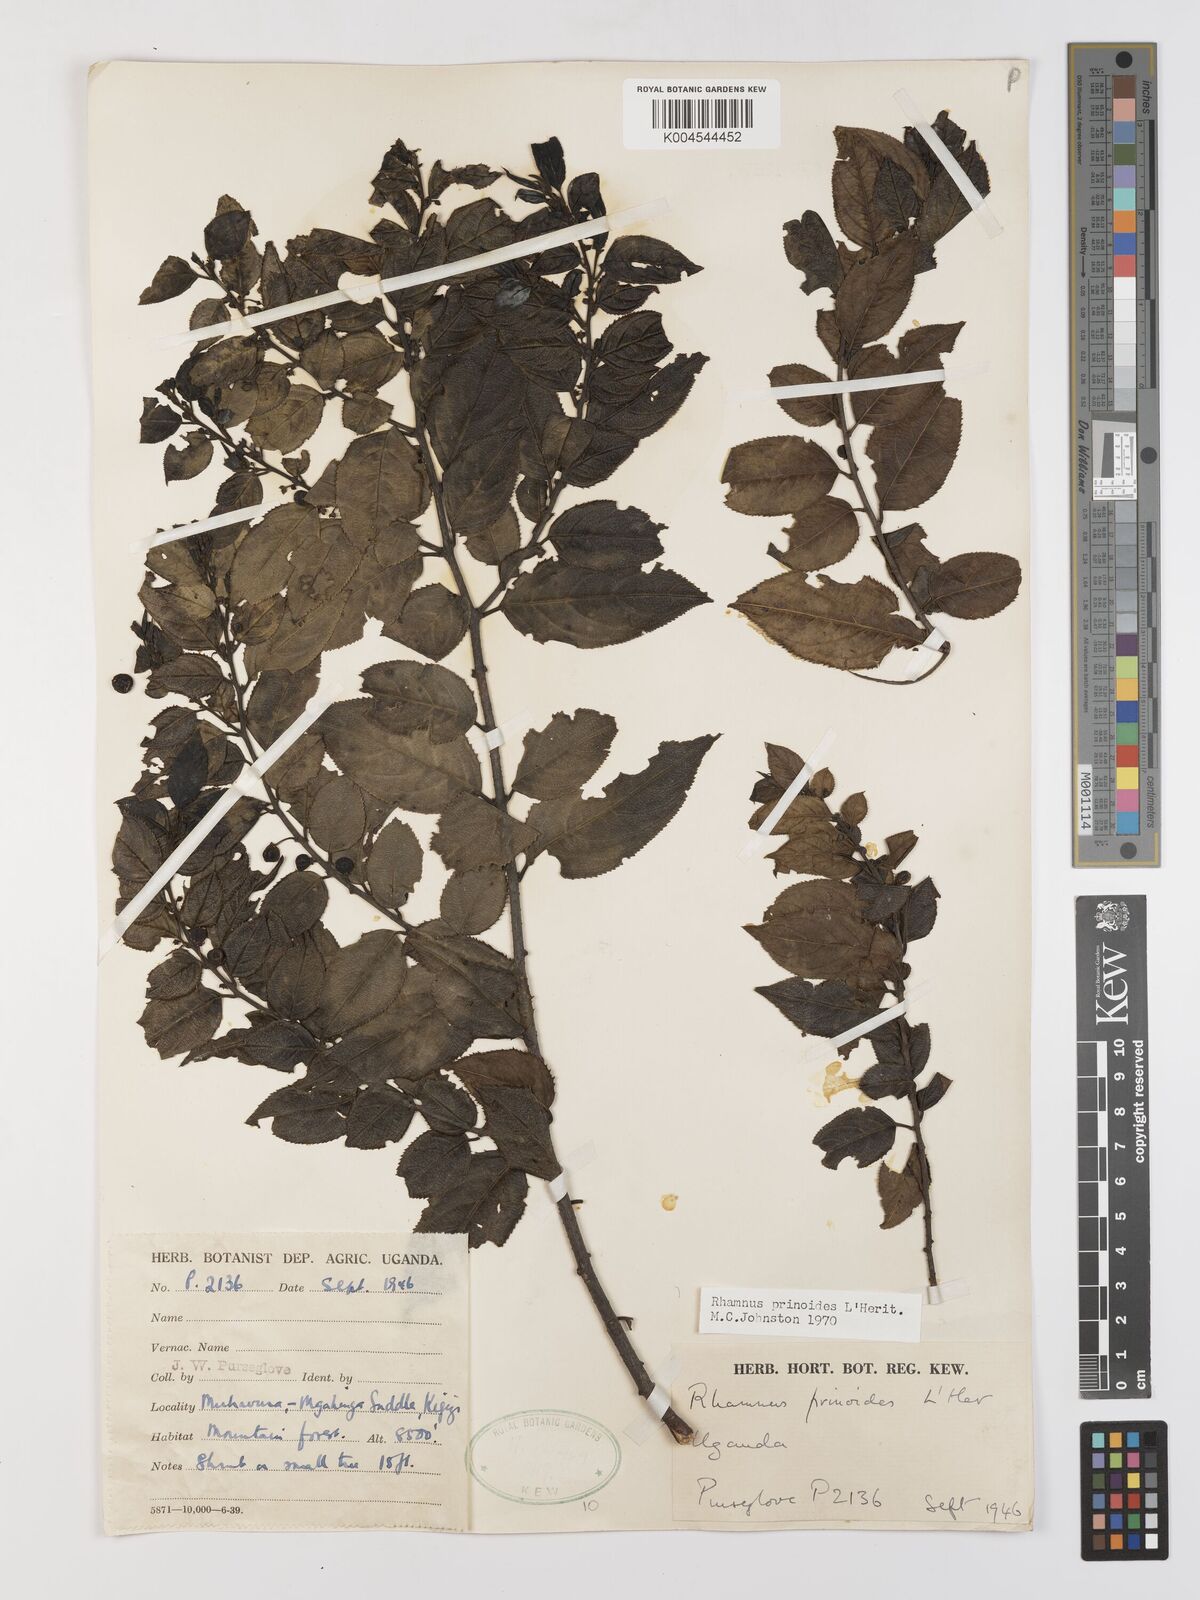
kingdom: Plantae
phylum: Tracheophyta
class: Magnoliopsida
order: Rosales
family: Rhamnaceae
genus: Rhamnus
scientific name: Rhamnus prinoides
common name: Dogwood
